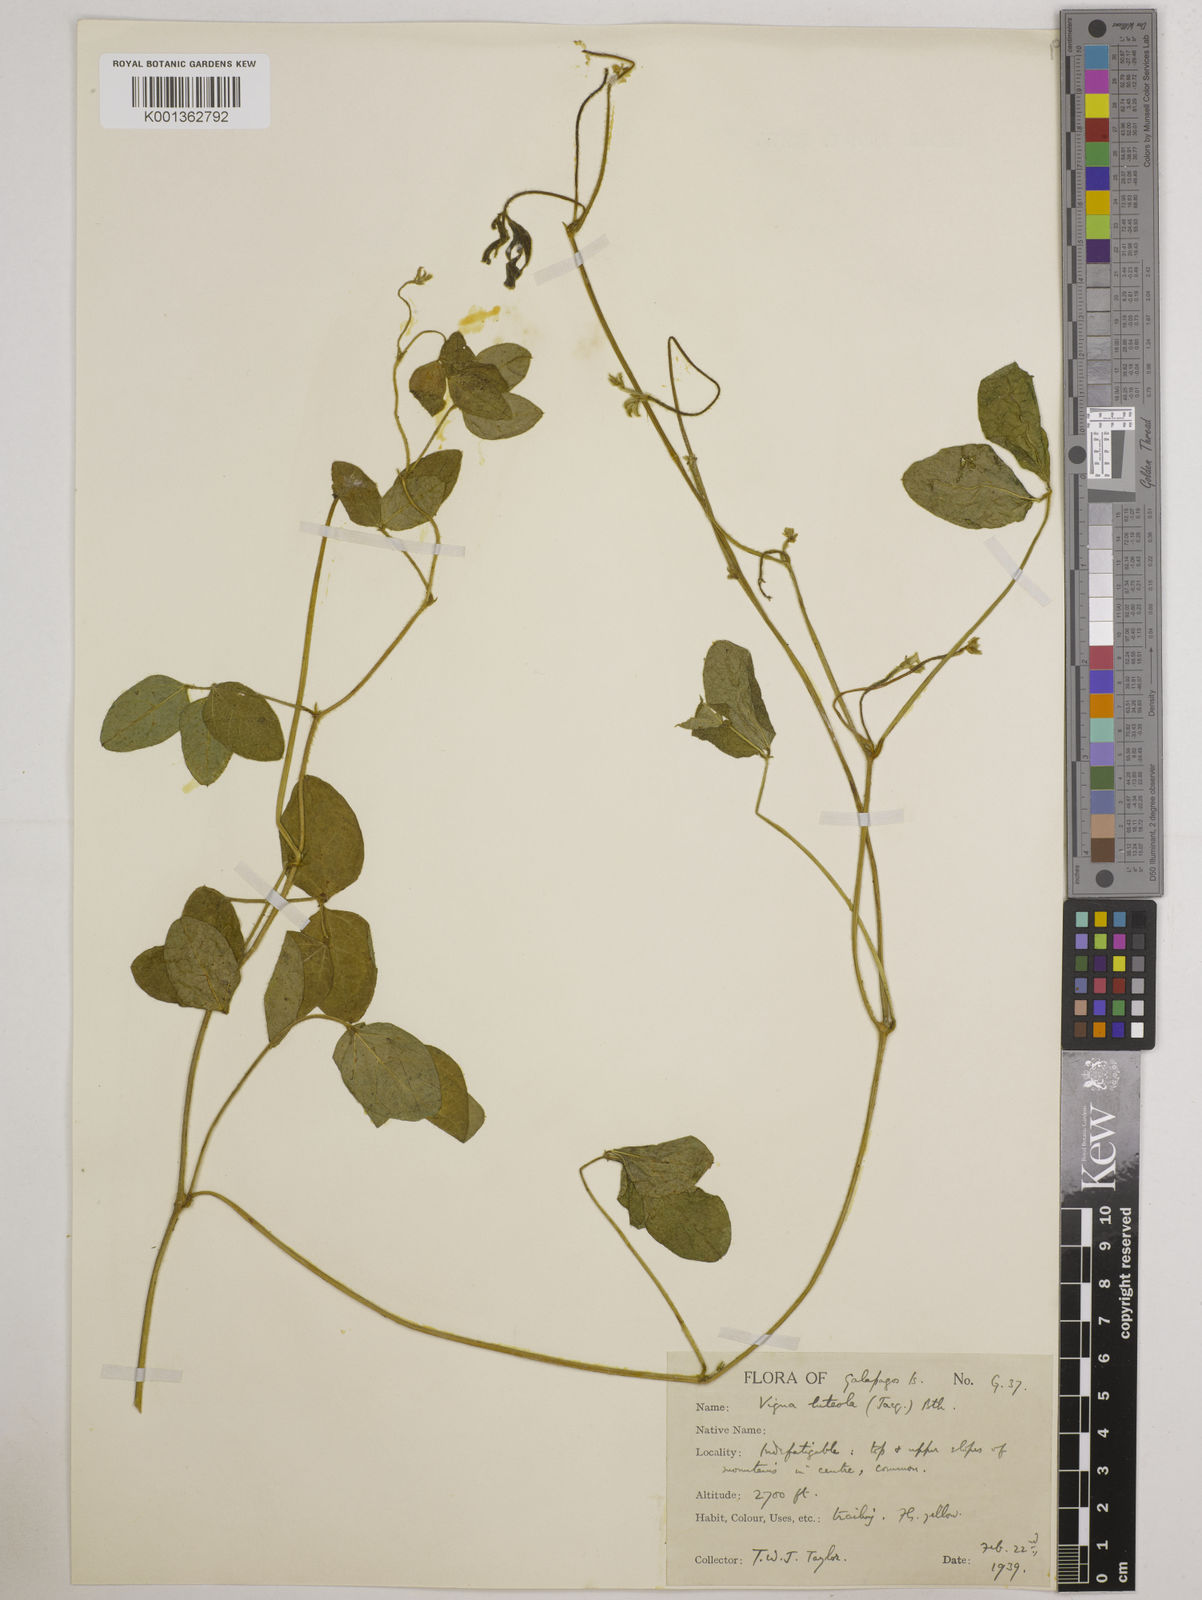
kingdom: Plantae
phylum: Tracheophyta
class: Magnoliopsida
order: Fabales
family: Fabaceae
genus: Vigna
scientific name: Vigna luteola
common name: Hairypod cowpea
